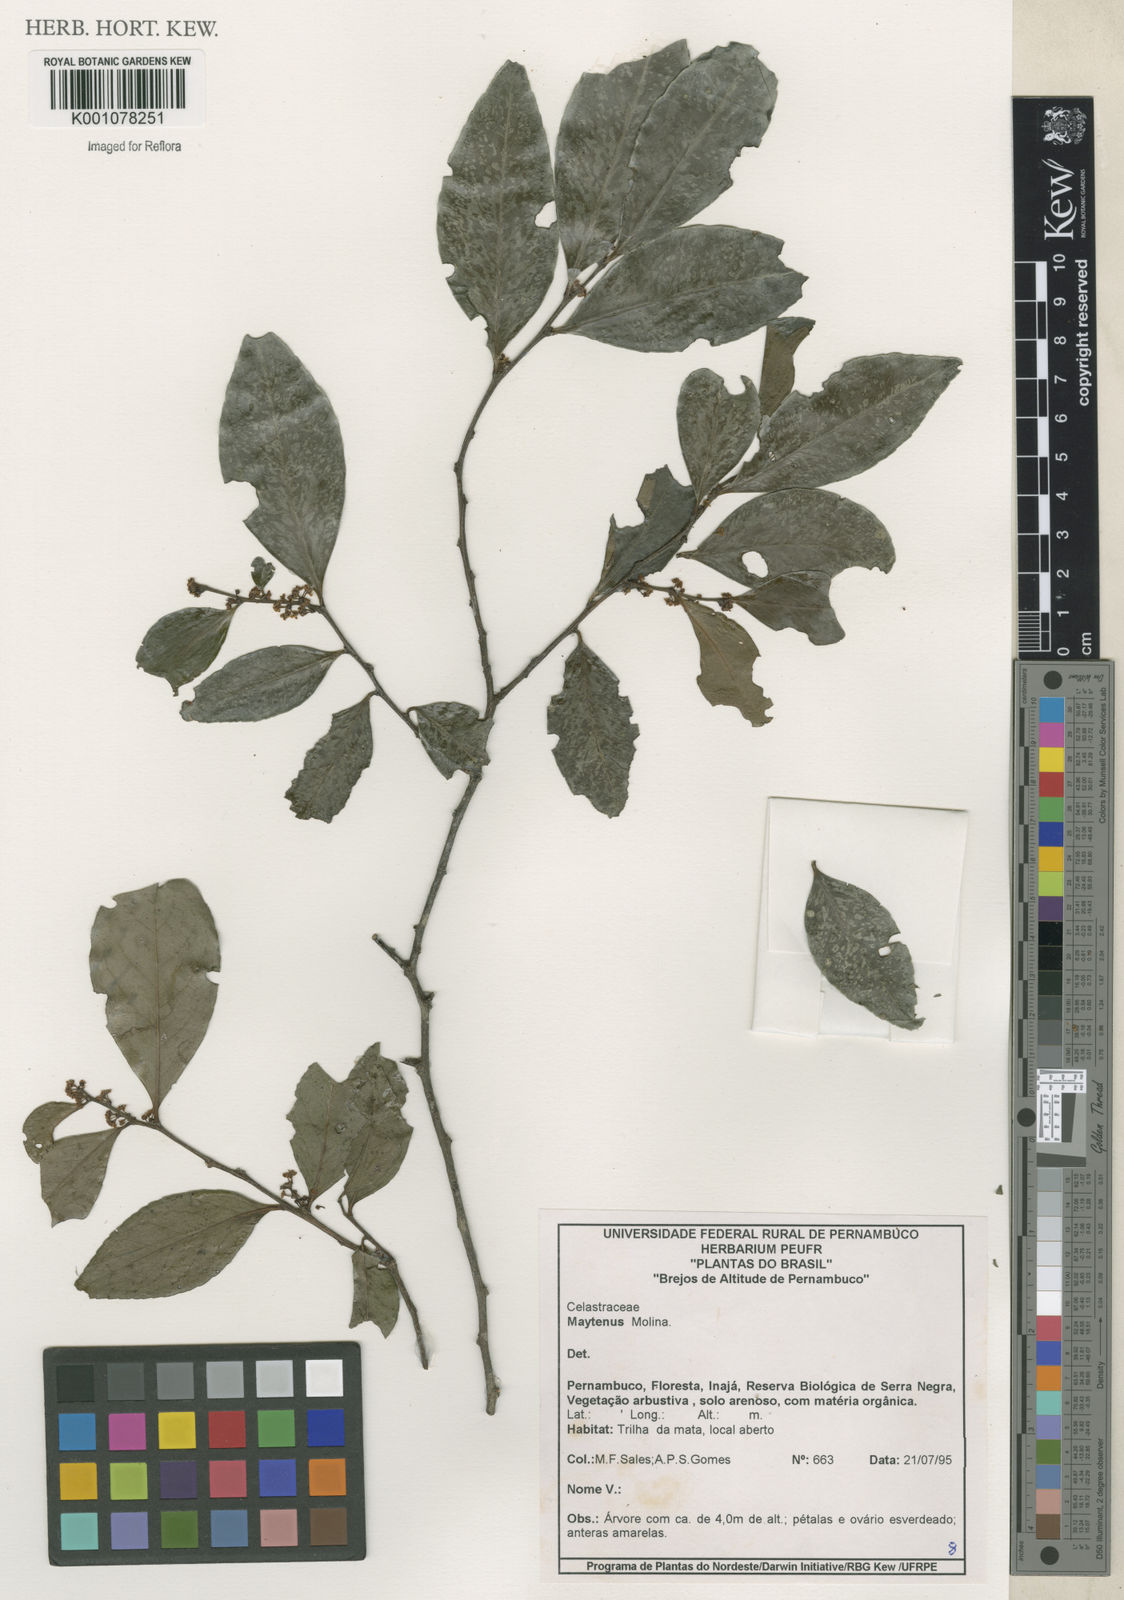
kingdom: Plantae
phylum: Tracheophyta
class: Magnoliopsida
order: Celastrales
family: Celastraceae
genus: Maytenus
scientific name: Maytenus
